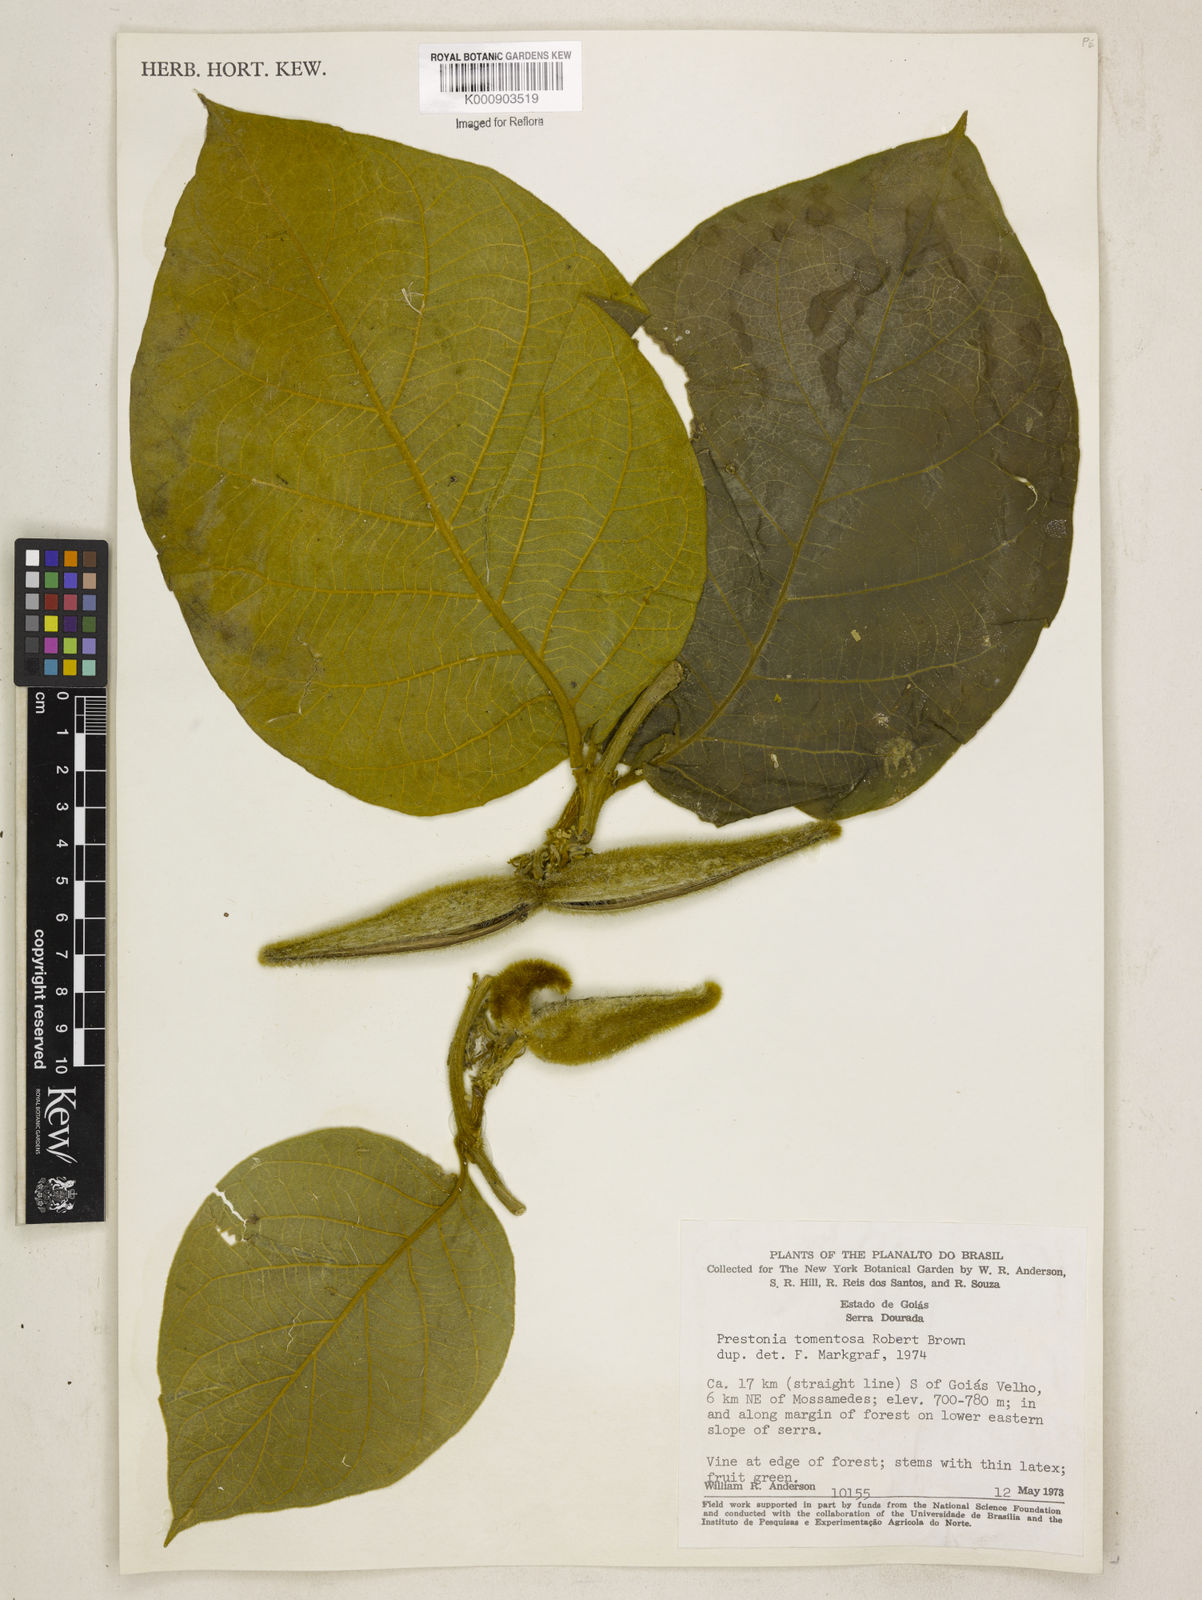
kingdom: Plantae
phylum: Tracheophyta
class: Magnoliopsida
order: Gentianales
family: Apocynaceae
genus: Prestonia
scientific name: Prestonia tomentosa
